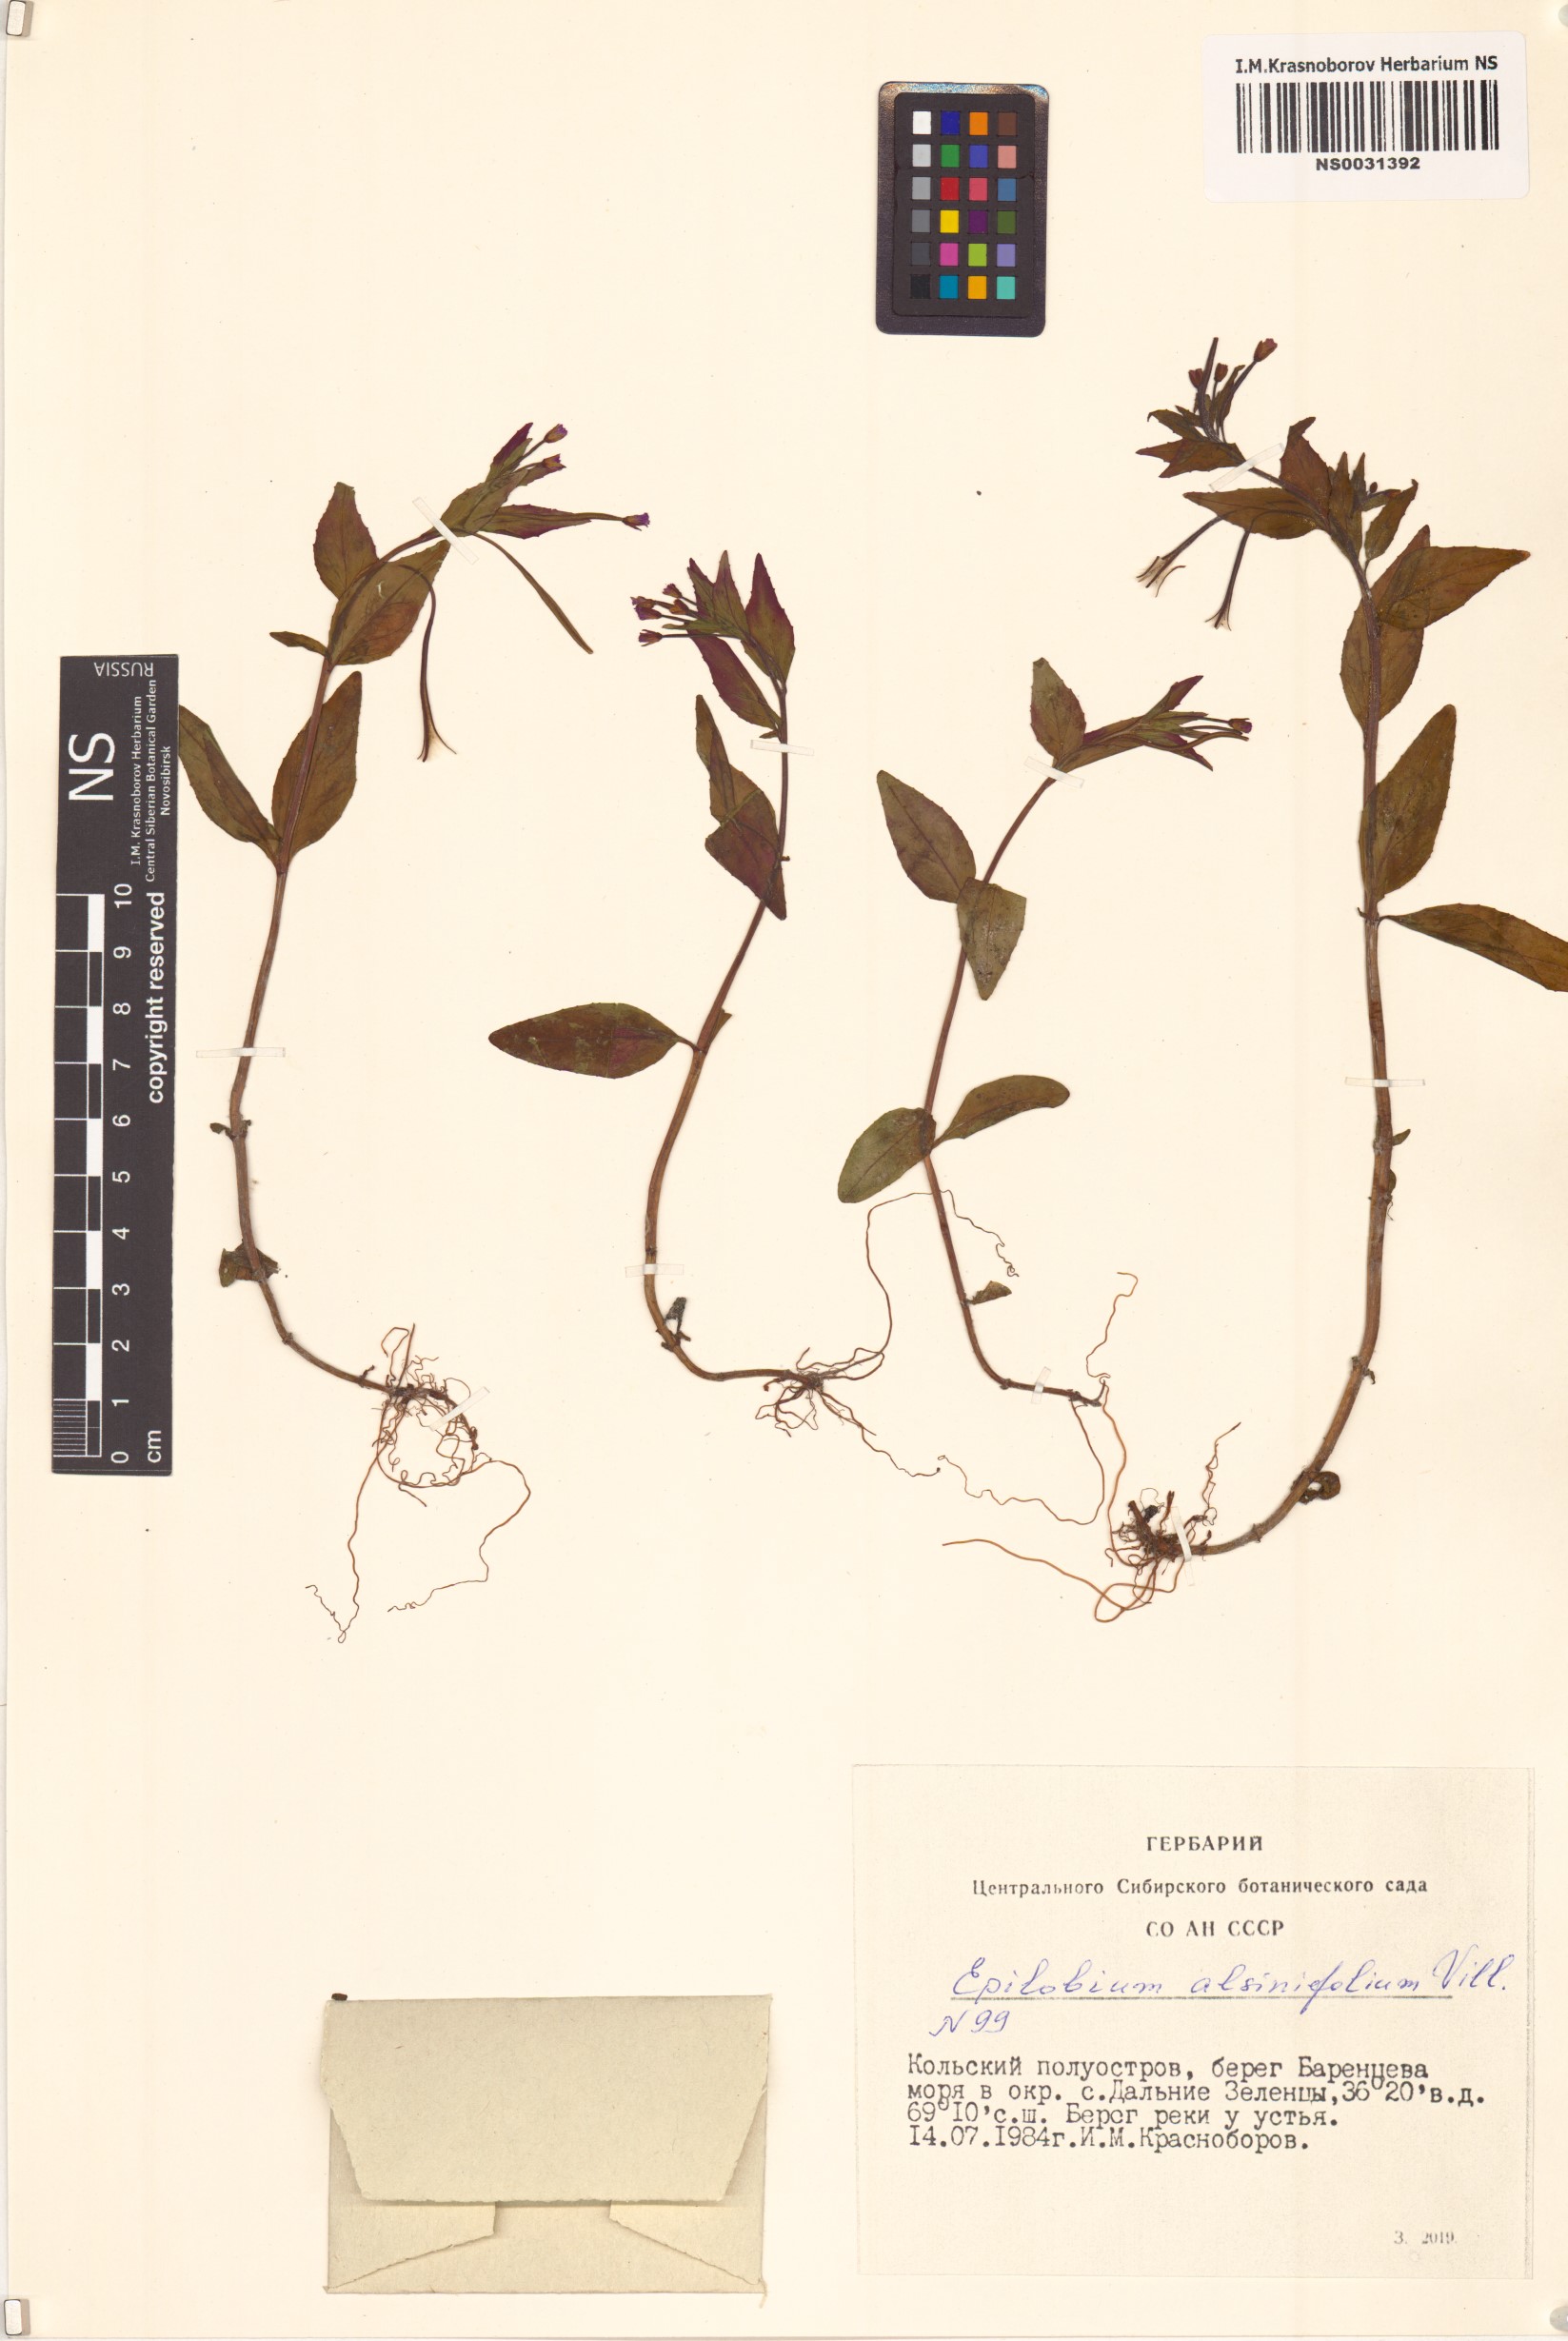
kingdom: Plantae
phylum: Tracheophyta
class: Magnoliopsida
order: Myrtales
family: Onagraceae
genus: Epilobium
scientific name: Epilobium alsinifolium
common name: Chickweed willowherb
